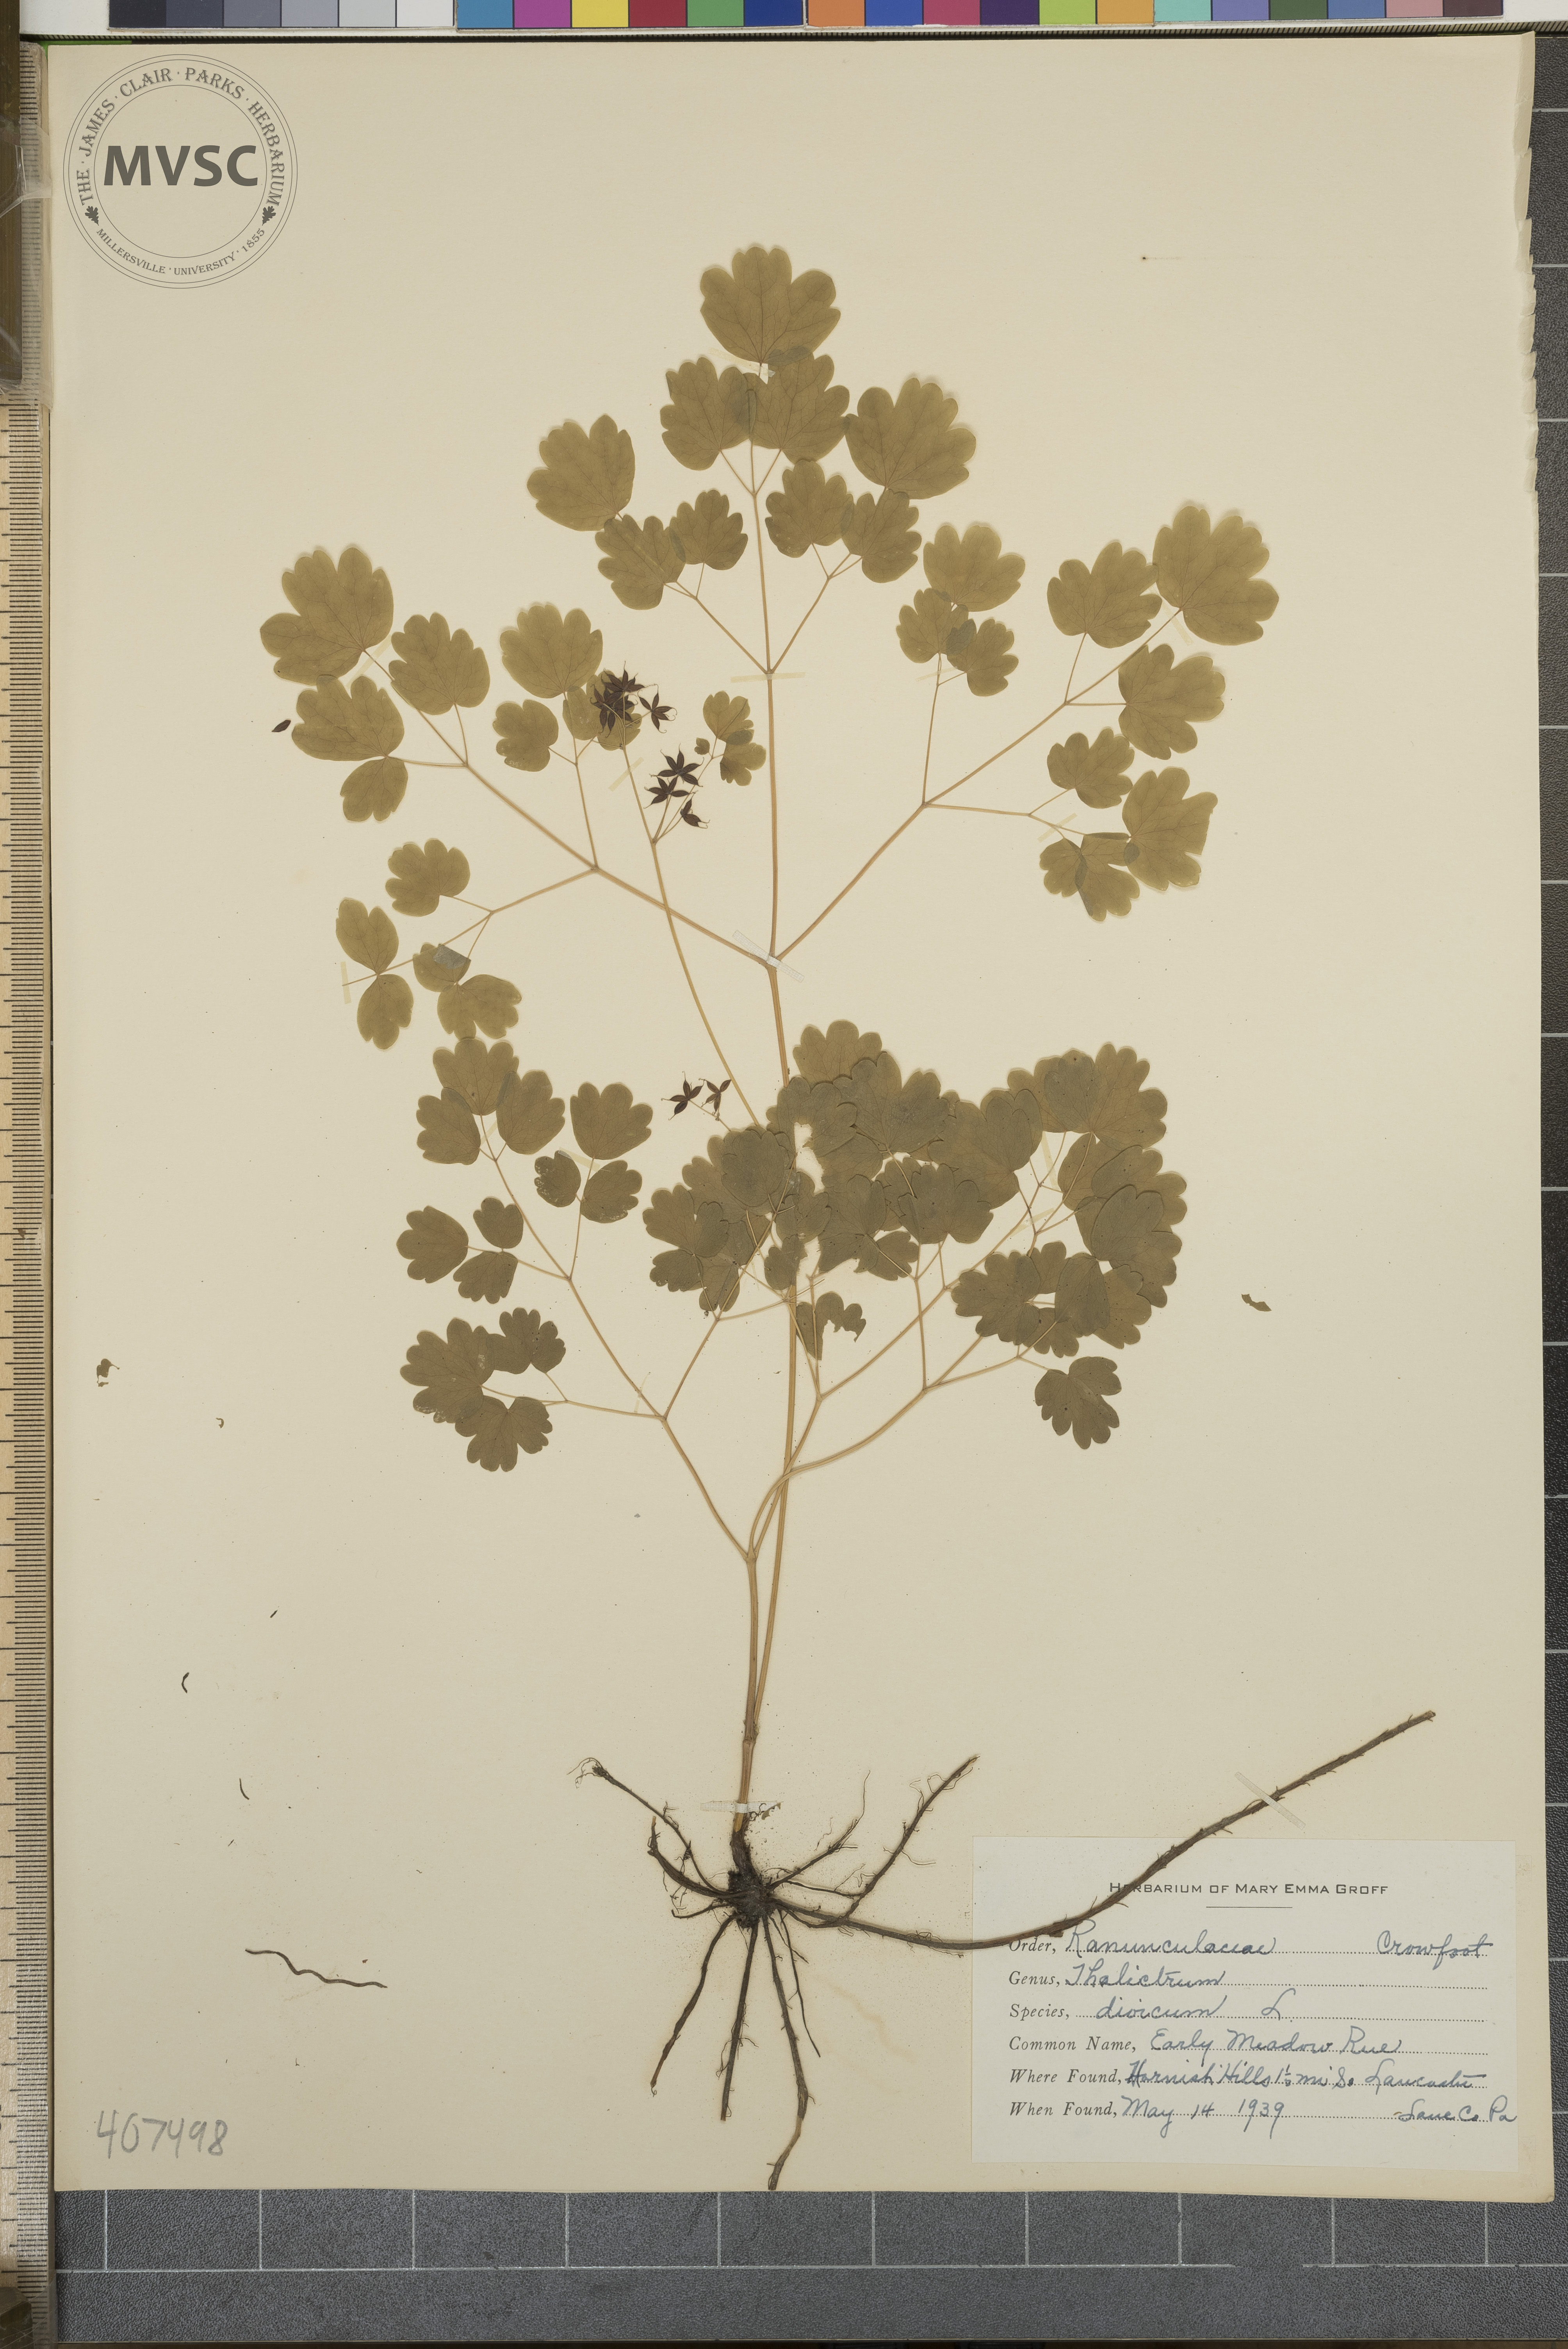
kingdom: Plantae
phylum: Tracheophyta
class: Magnoliopsida
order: Ranunculales
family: Ranunculaceae
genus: Thalictrum
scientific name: Thalictrum dioicum
